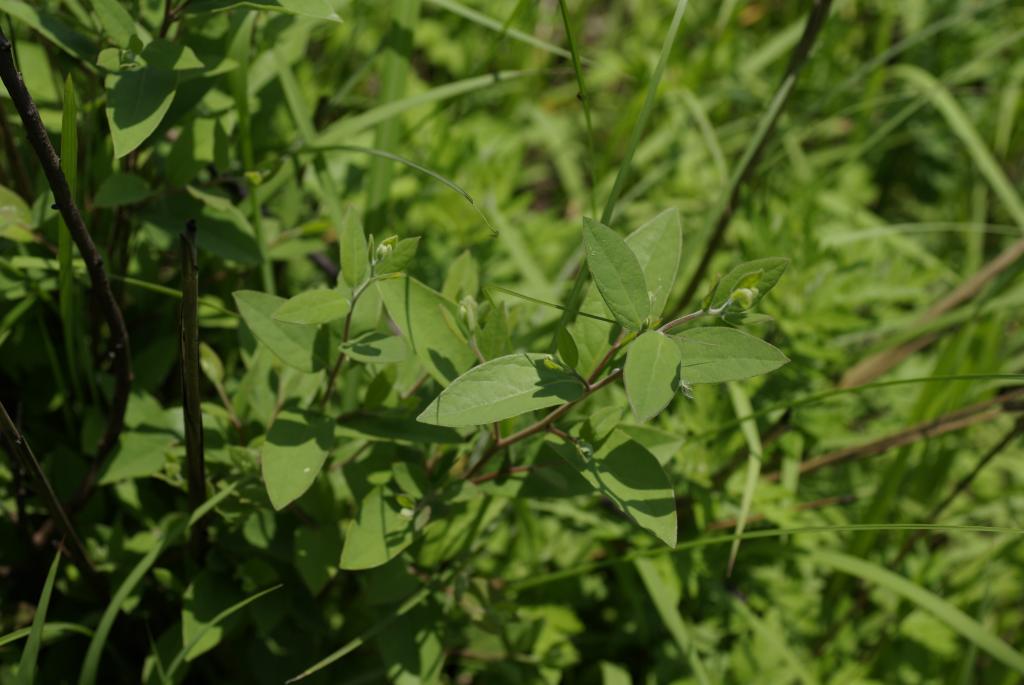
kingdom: Plantae
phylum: Tracheophyta
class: Magnoliopsida
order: Laurales
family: Lauraceae
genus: Lindera
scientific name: Lindera glauca
